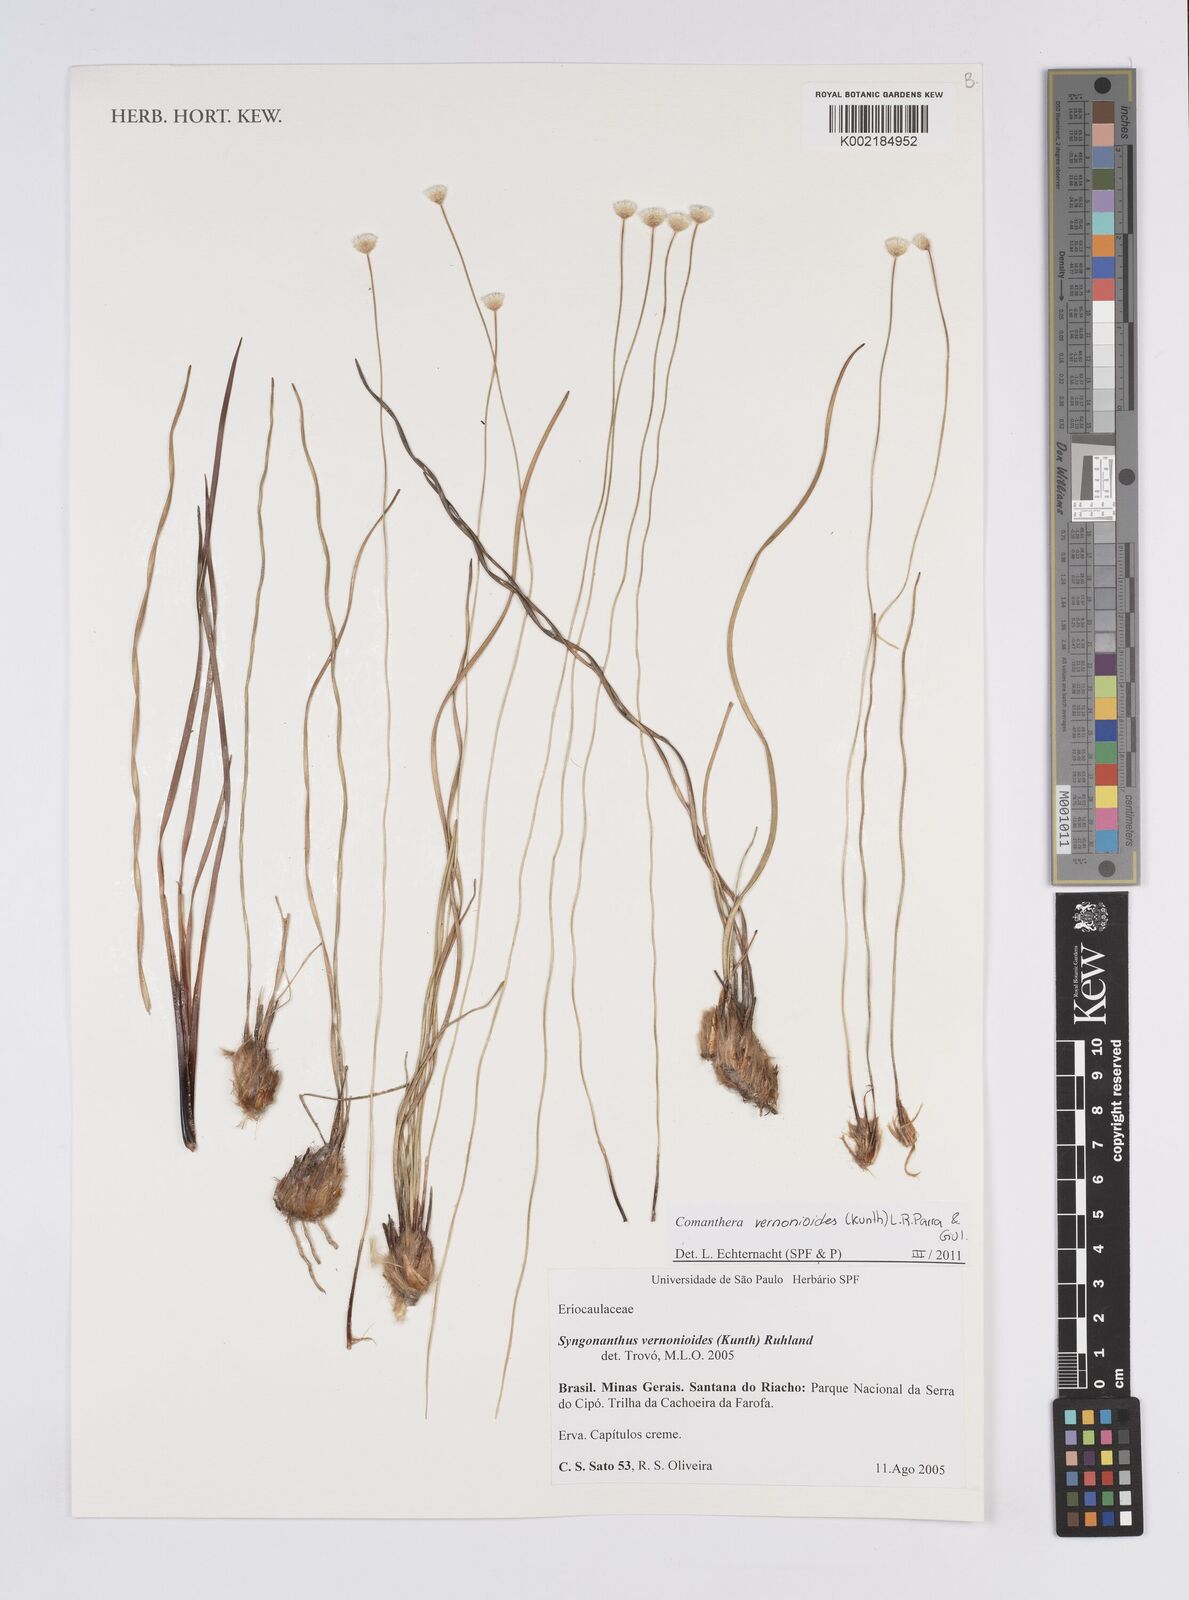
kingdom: Plantae
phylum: Tracheophyta
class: Liliopsida
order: Poales
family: Eriocaulaceae
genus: Comanthera
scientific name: Comanthera centauroides
